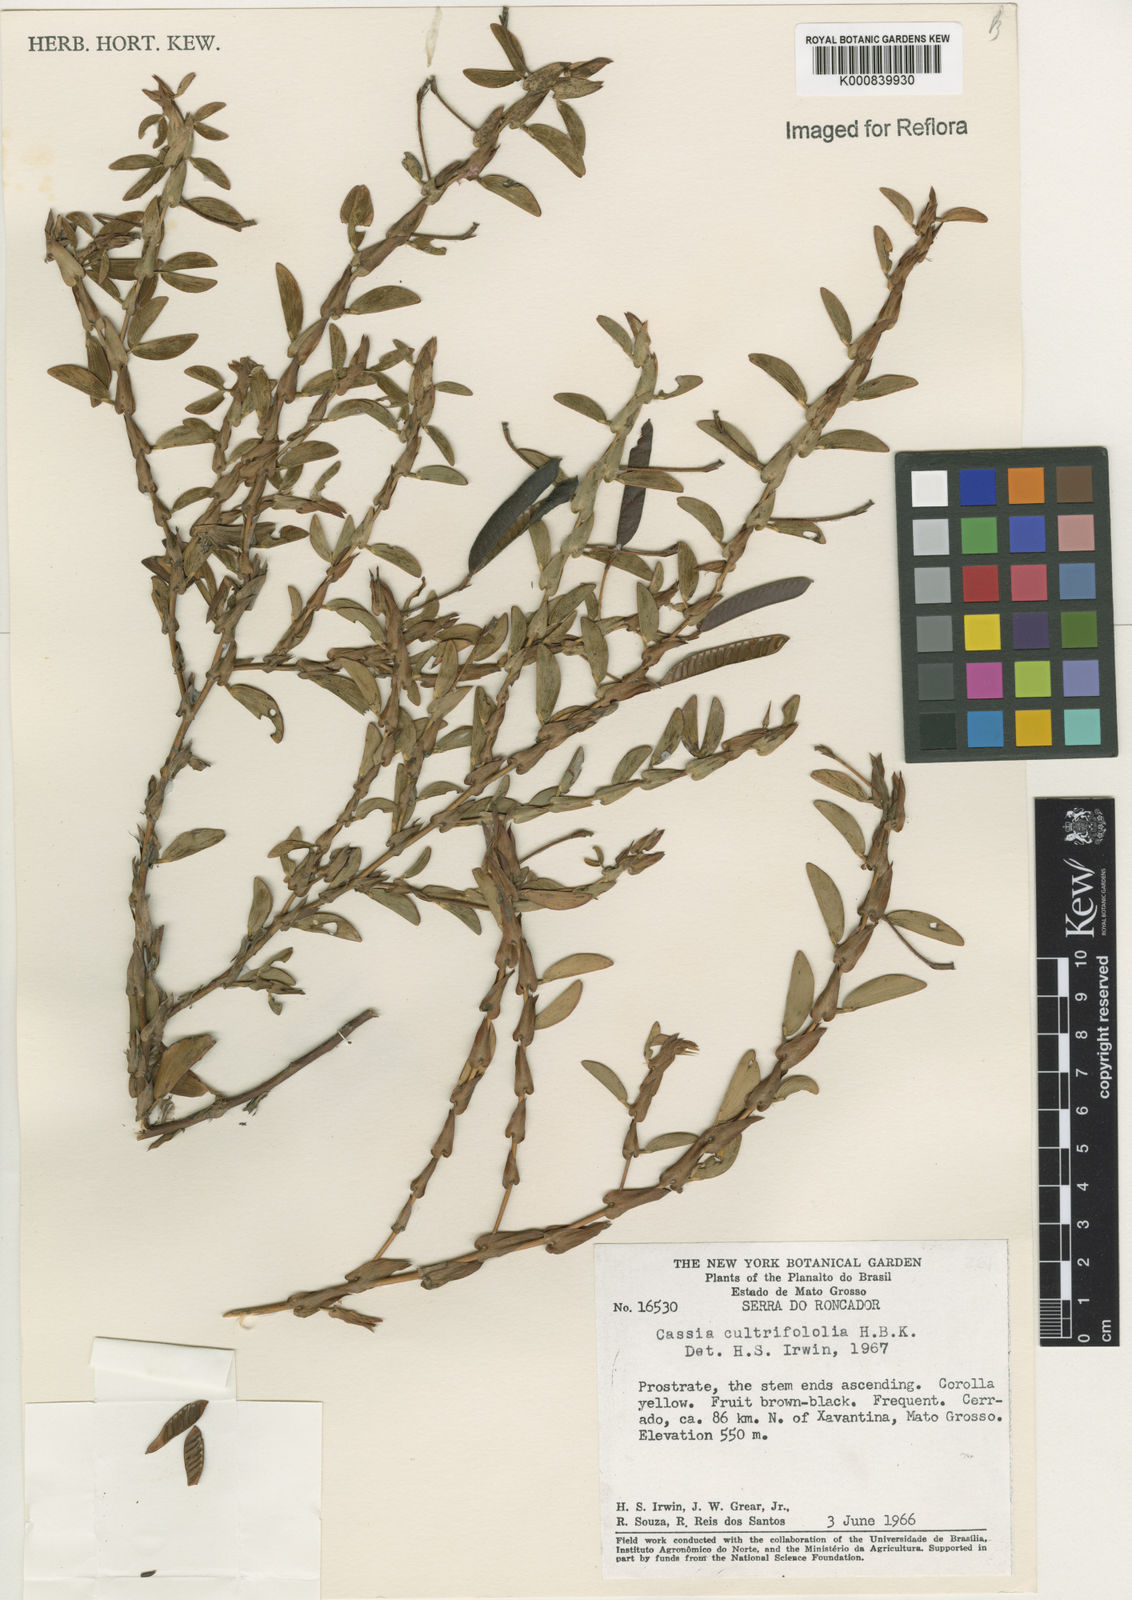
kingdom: Plantae
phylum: Tracheophyta
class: Magnoliopsida
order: Fabales
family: Fabaceae
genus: Chamaecrista
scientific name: Chamaecrista diphylla
